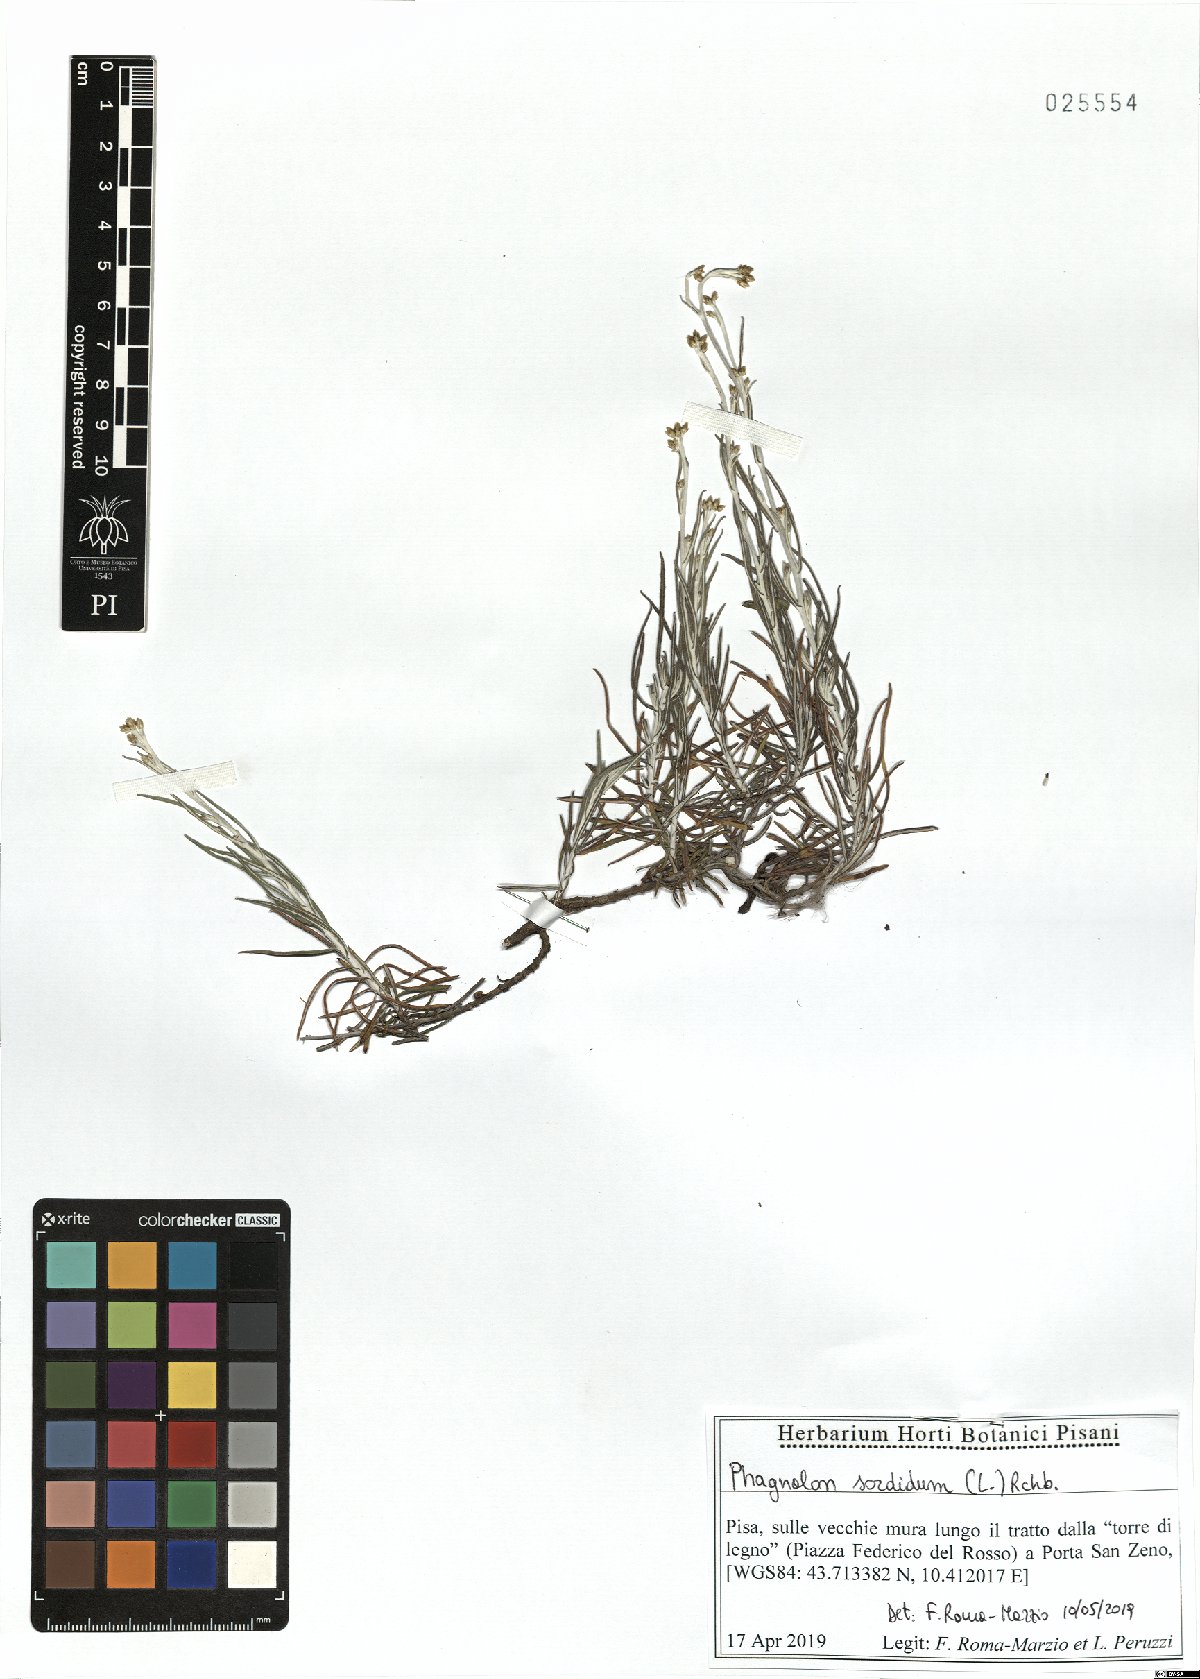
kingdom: Plantae
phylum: Tracheophyta
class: Magnoliopsida
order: Asterales
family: Asteraceae
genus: Phagnalon
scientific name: Phagnalon sordidum
